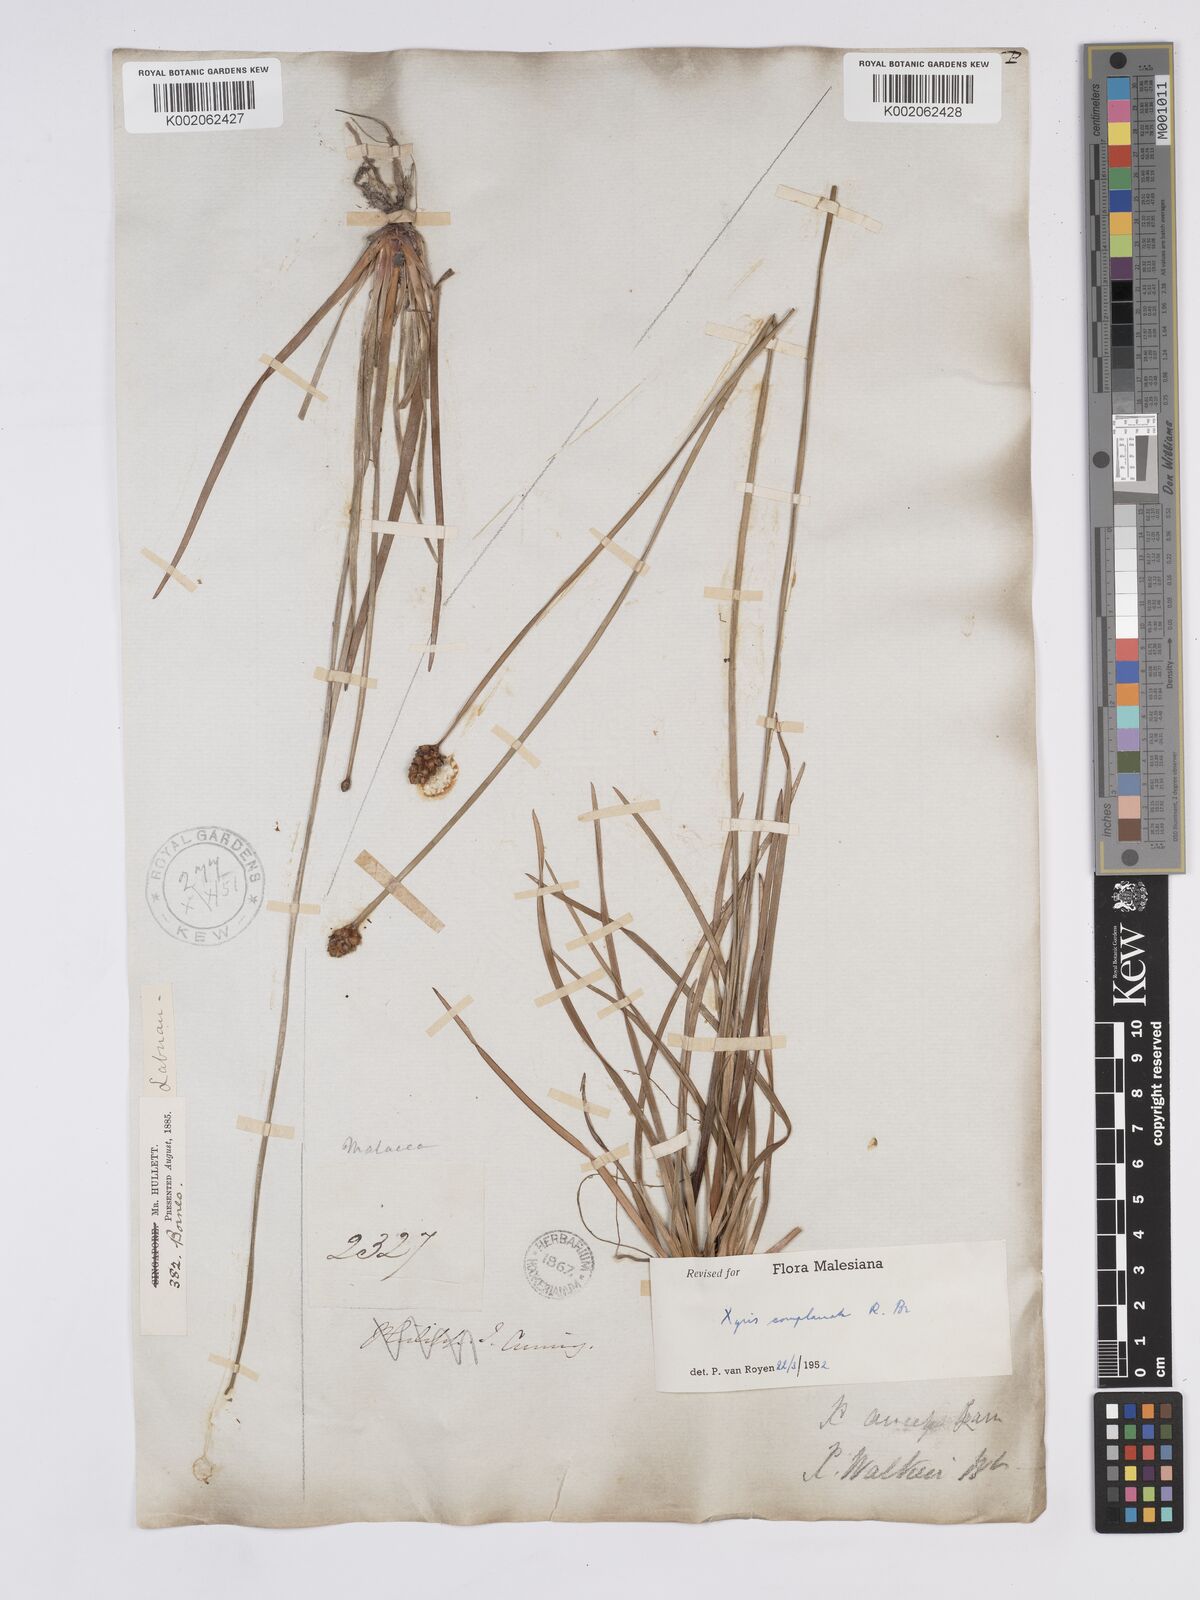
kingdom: Plantae
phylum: Tracheophyta
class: Liliopsida
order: Poales
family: Xyridaceae
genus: Xyris
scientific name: Xyris complanata
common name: Hawai'i yelloweyed grass
